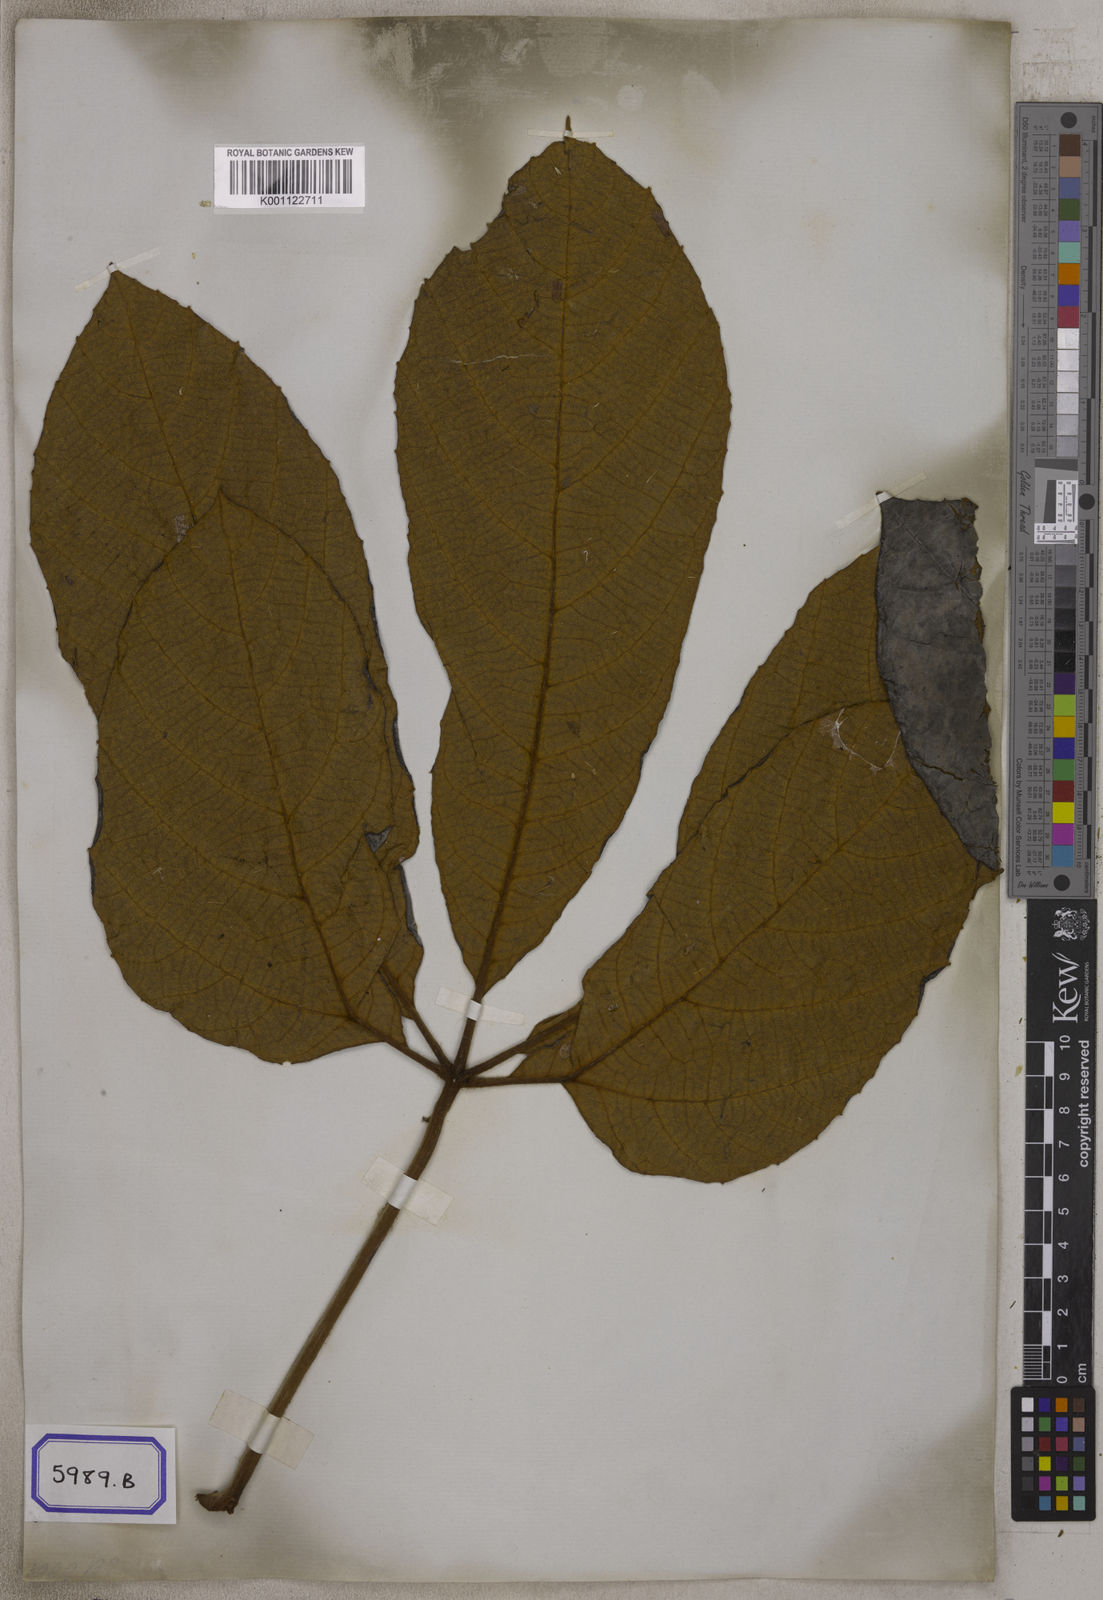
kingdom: Plantae
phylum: Tracheophyta
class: Magnoliopsida
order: Vitales
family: Vitaceae
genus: Ampelocissus
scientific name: Ampelocissus cinnamomea
